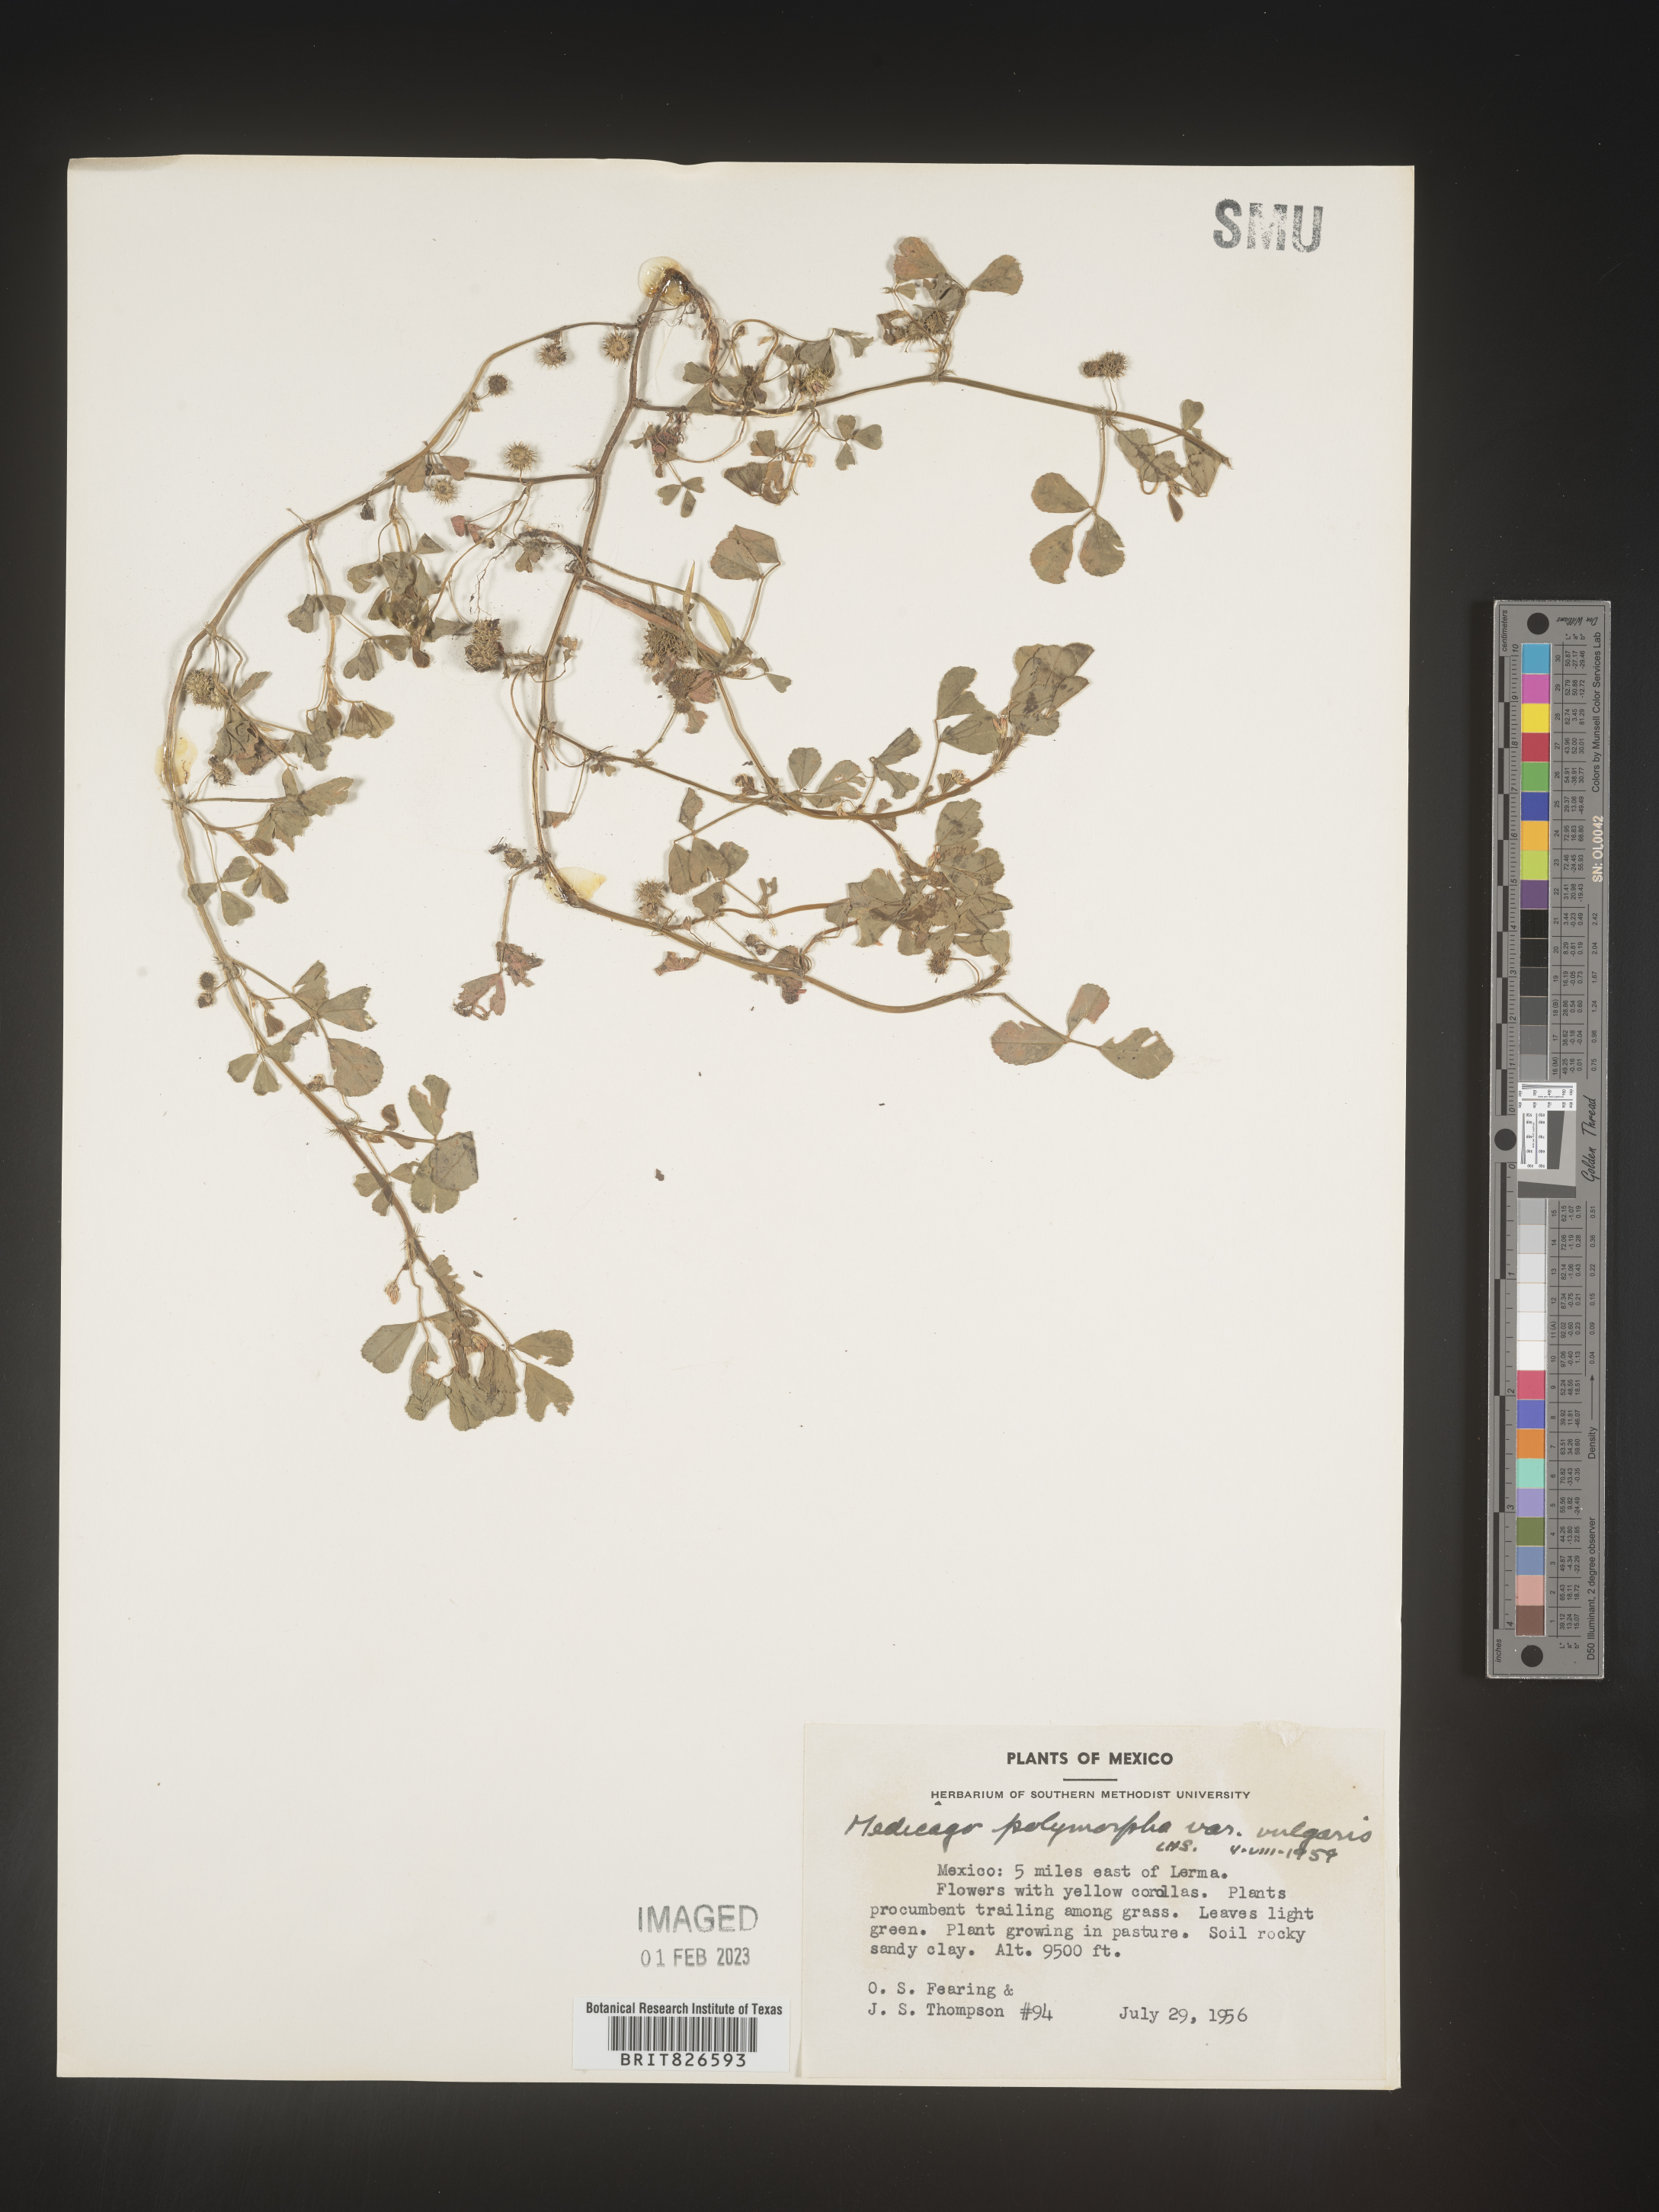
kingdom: Plantae
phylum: Tracheophyta
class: Magnoliopsida
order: Fabales
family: Fabaceae
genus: Medicago
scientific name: Medicago
